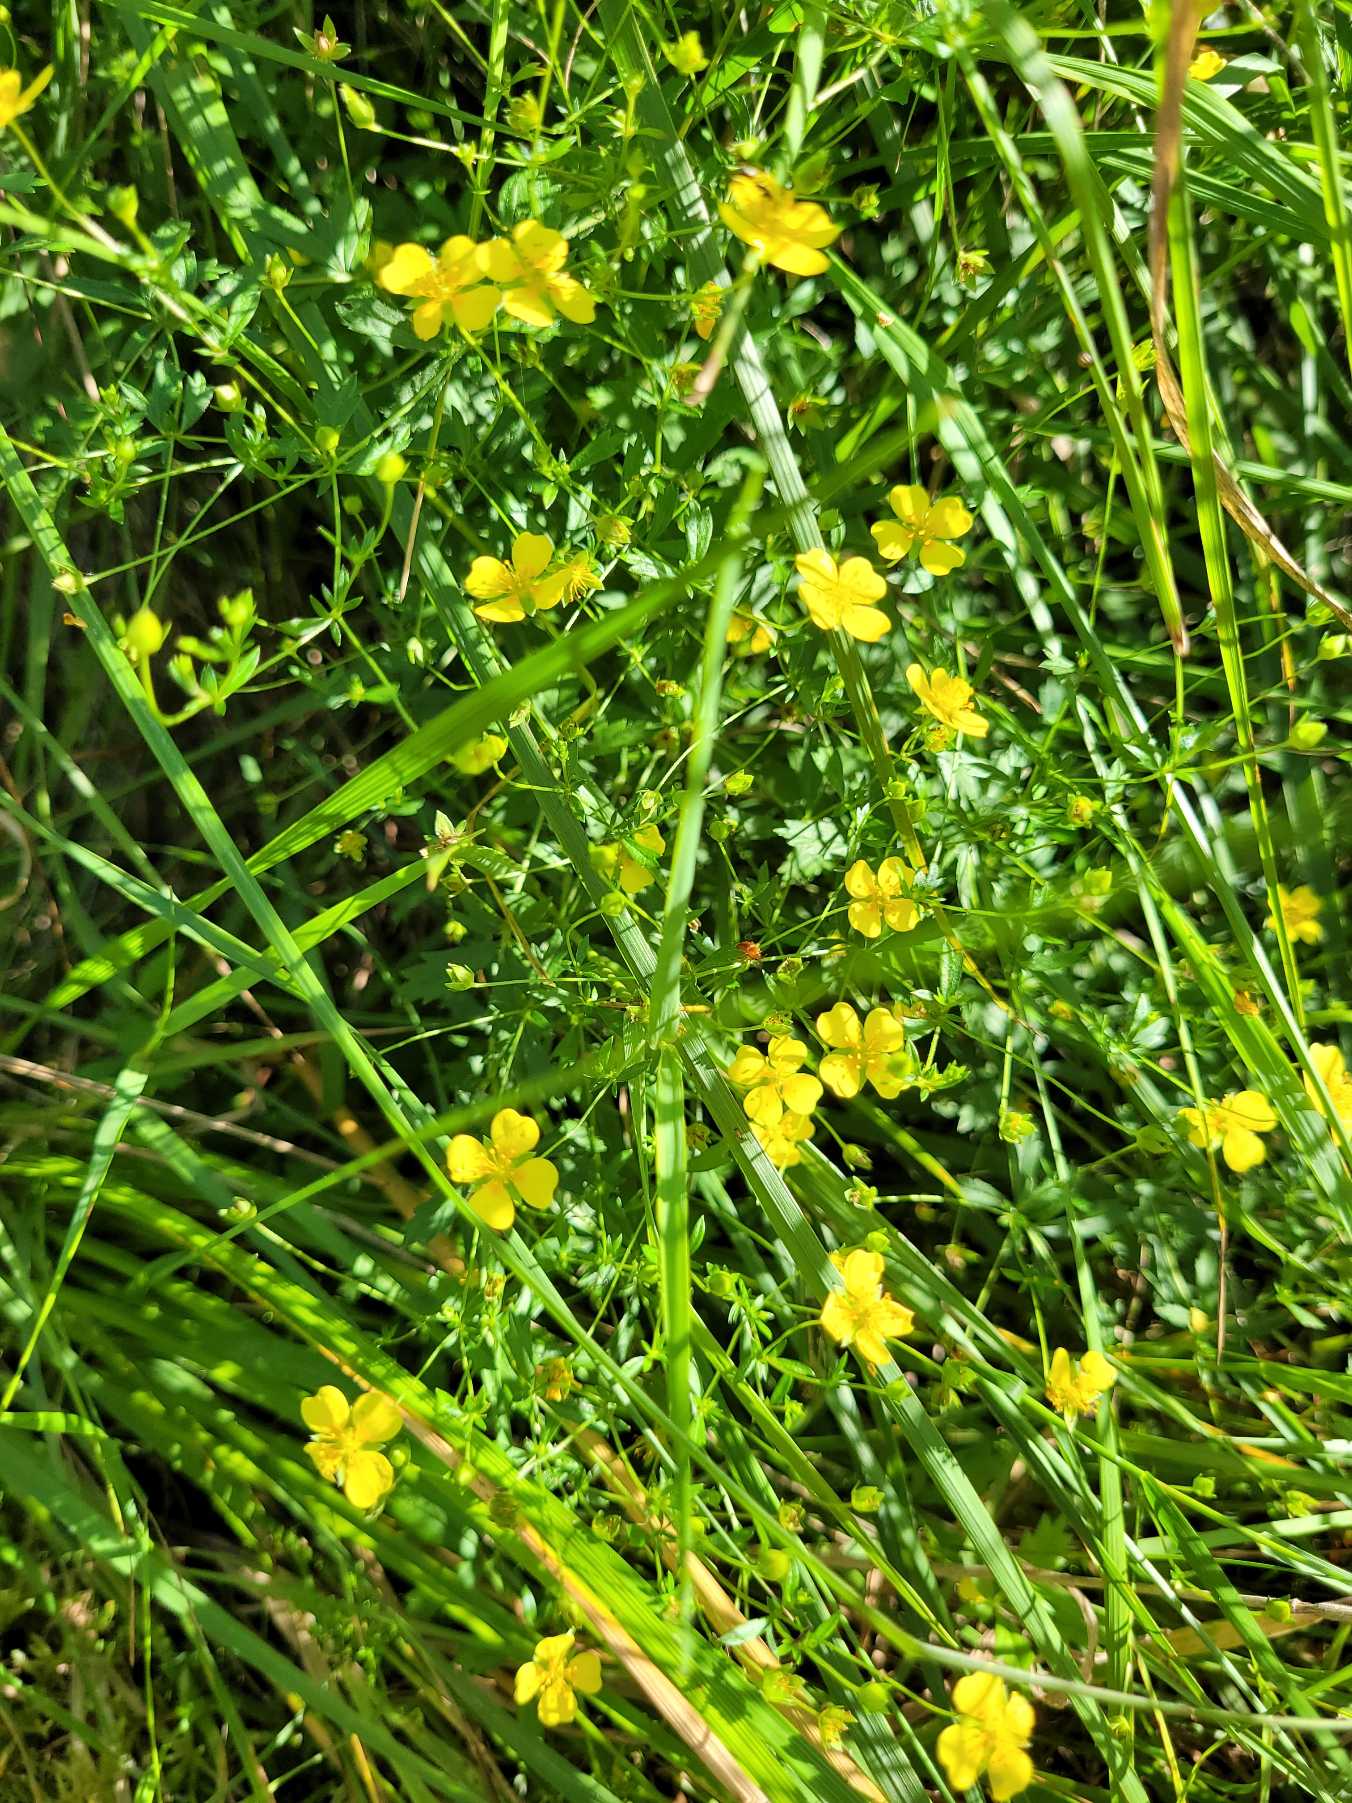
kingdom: Plantae
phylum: Tracheophyta
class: Magnoliopsida
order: Rosales
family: Rosaceae
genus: Potentilla
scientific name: Potentilla erecta
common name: Tormentil
